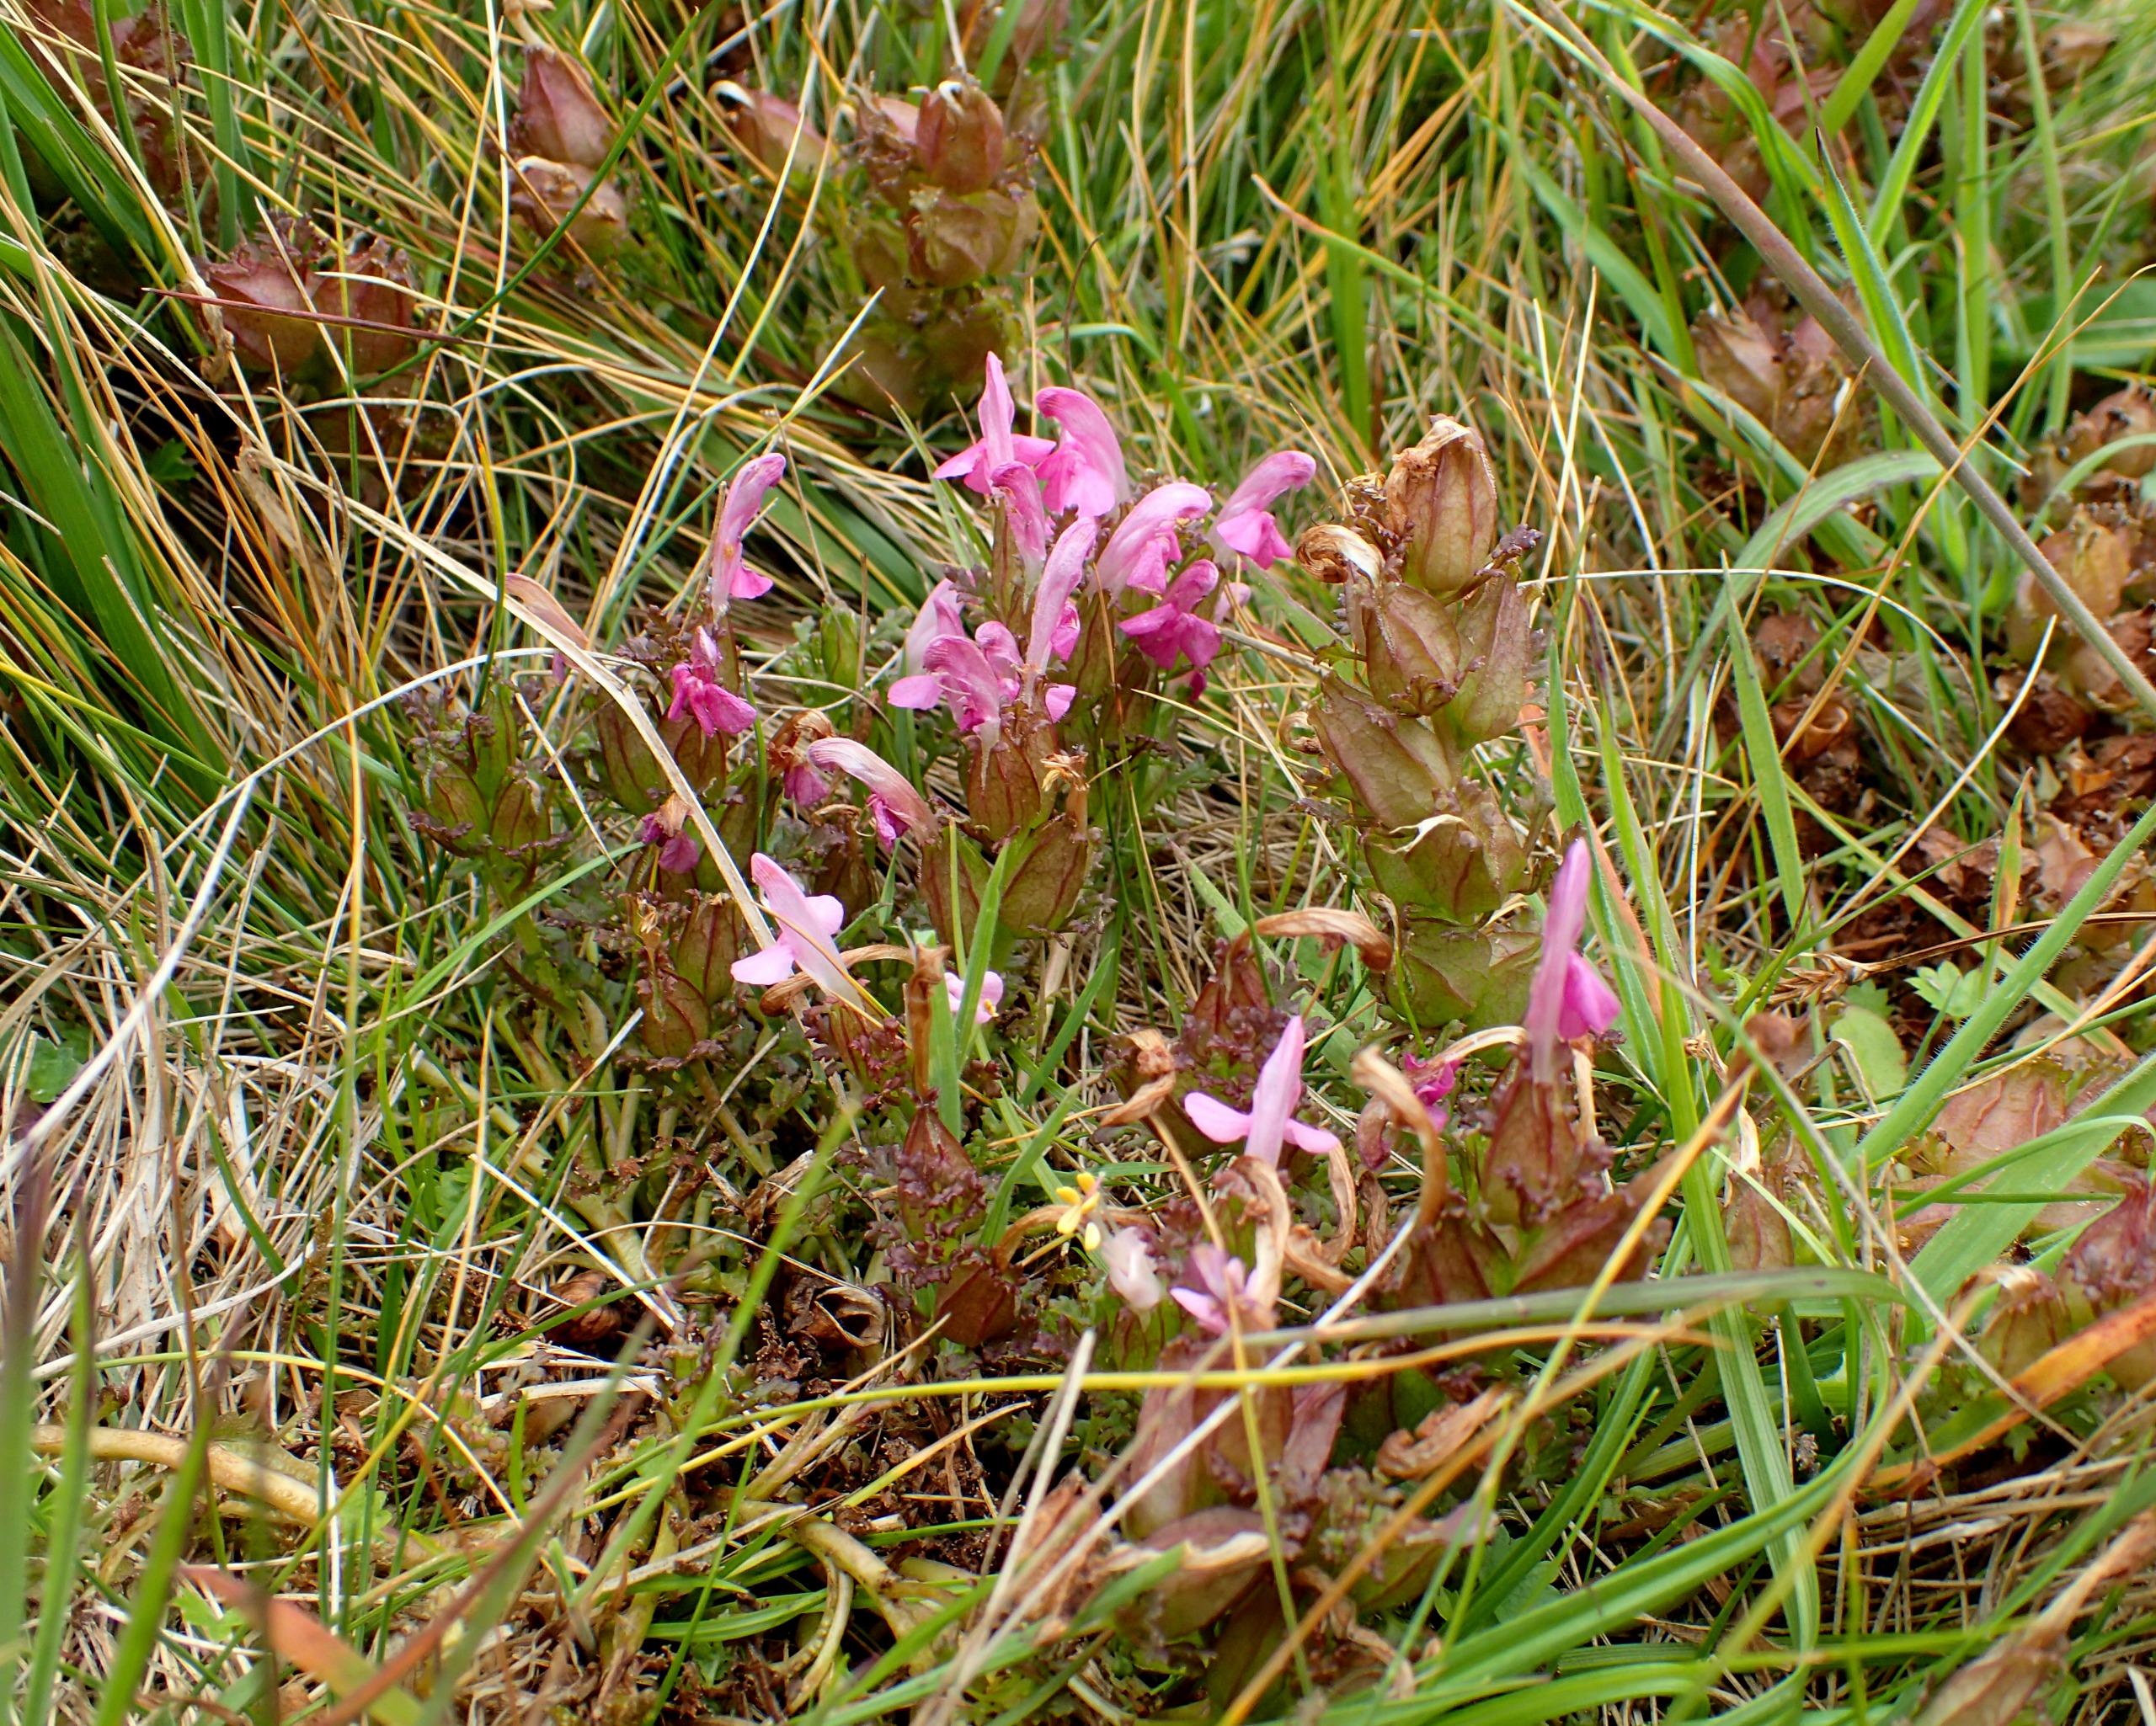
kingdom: Plantae
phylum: Tracheophyta
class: Magnoliopsida
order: Lamiales
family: Orobanchaceae
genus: Pedicularis
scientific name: Pedicularis sylvatica
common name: Mose-troldurt
